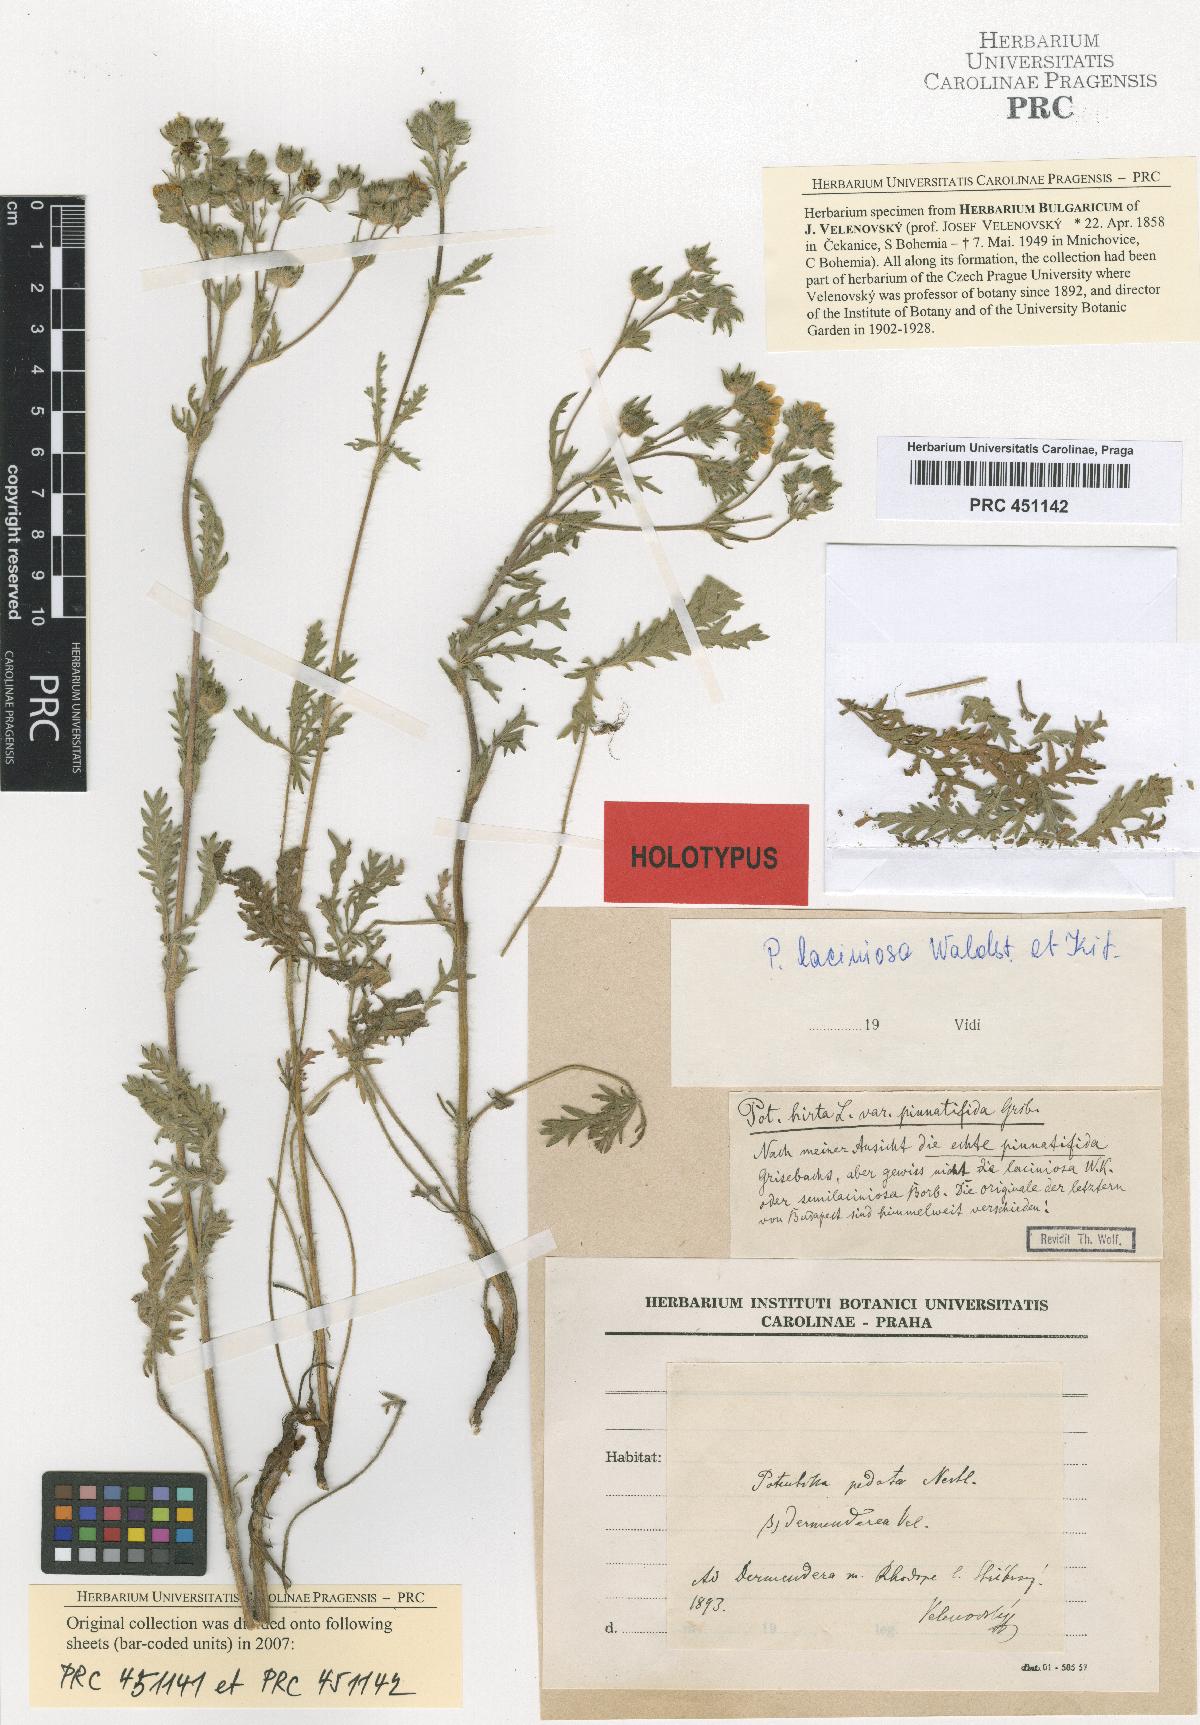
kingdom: Plantae
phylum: Tracheophyta
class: Magnoliopsida
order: Rosales
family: Rosaceae
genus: Potentilla
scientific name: Potentilla pedata
